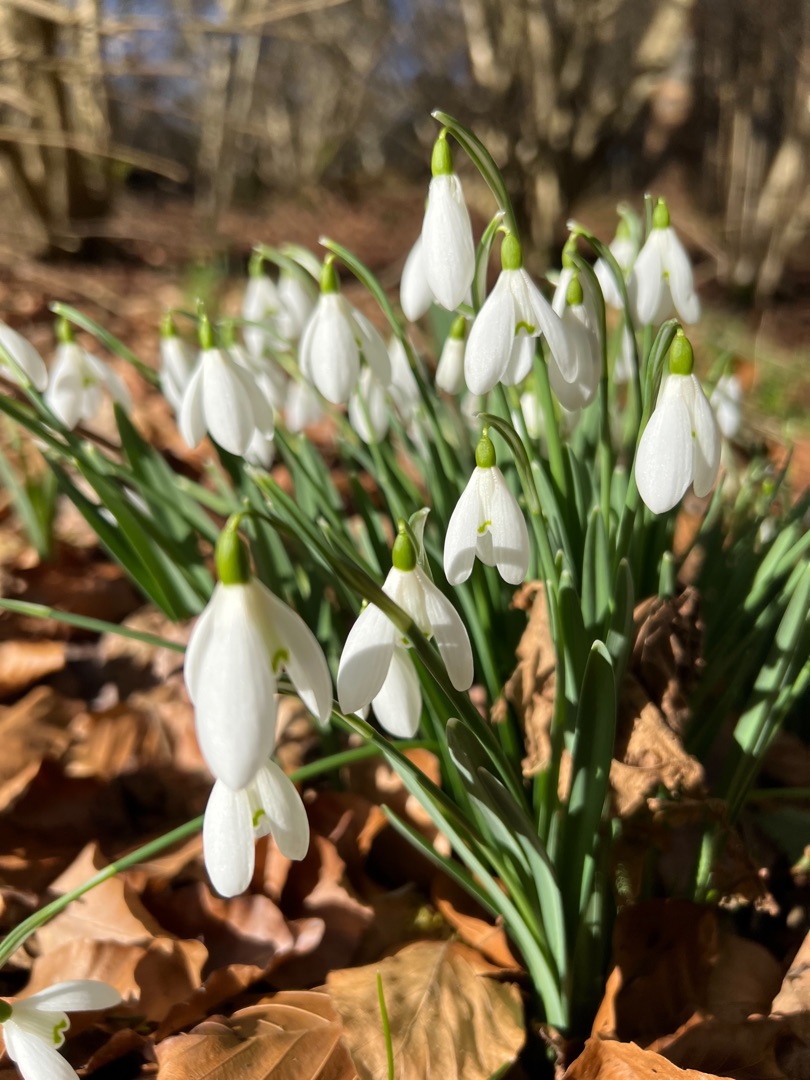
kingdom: Plantae
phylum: Tracheophyta
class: Liliopsida
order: Asparagales
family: Amaryllidaceae
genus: Galanthus
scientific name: Galanthus nivalis
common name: Vintergæk
